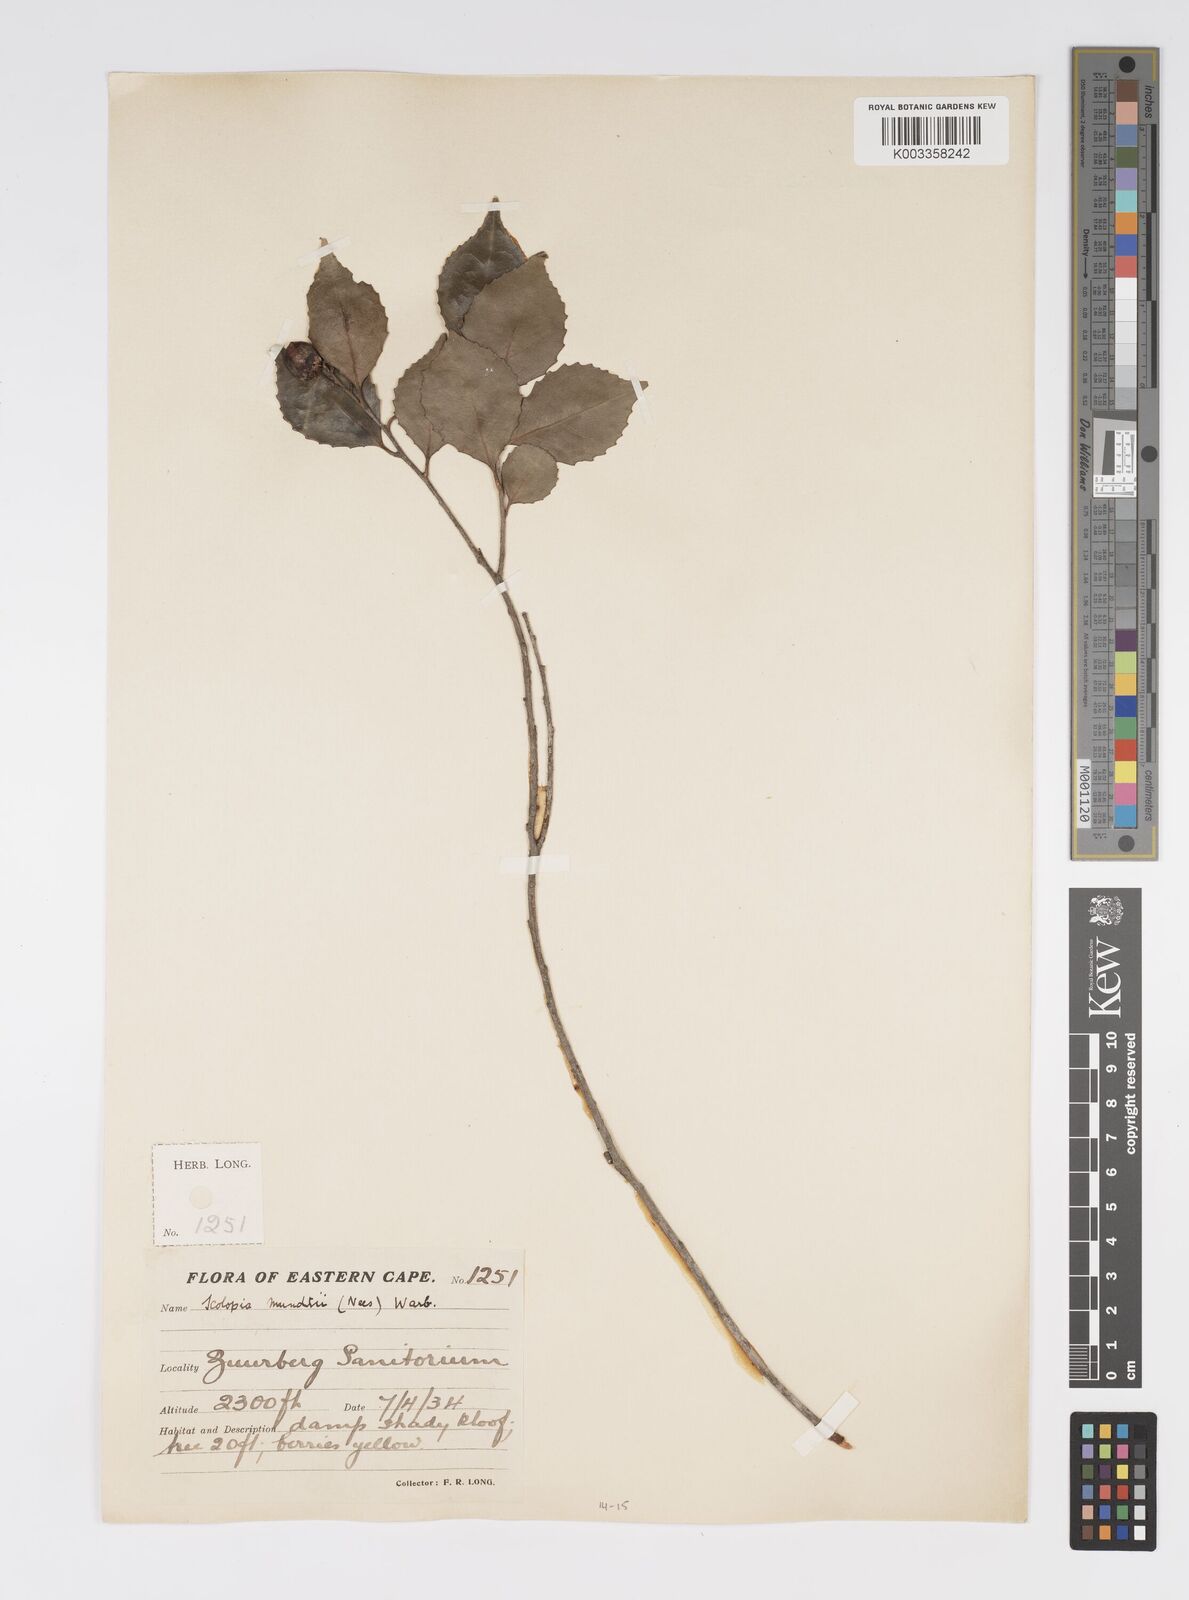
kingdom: Plantae
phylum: Tracheophyta
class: Magnoliopsida
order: Malpighiales
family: Salicaceae
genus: Scolopia
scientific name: Scolopia mundii
